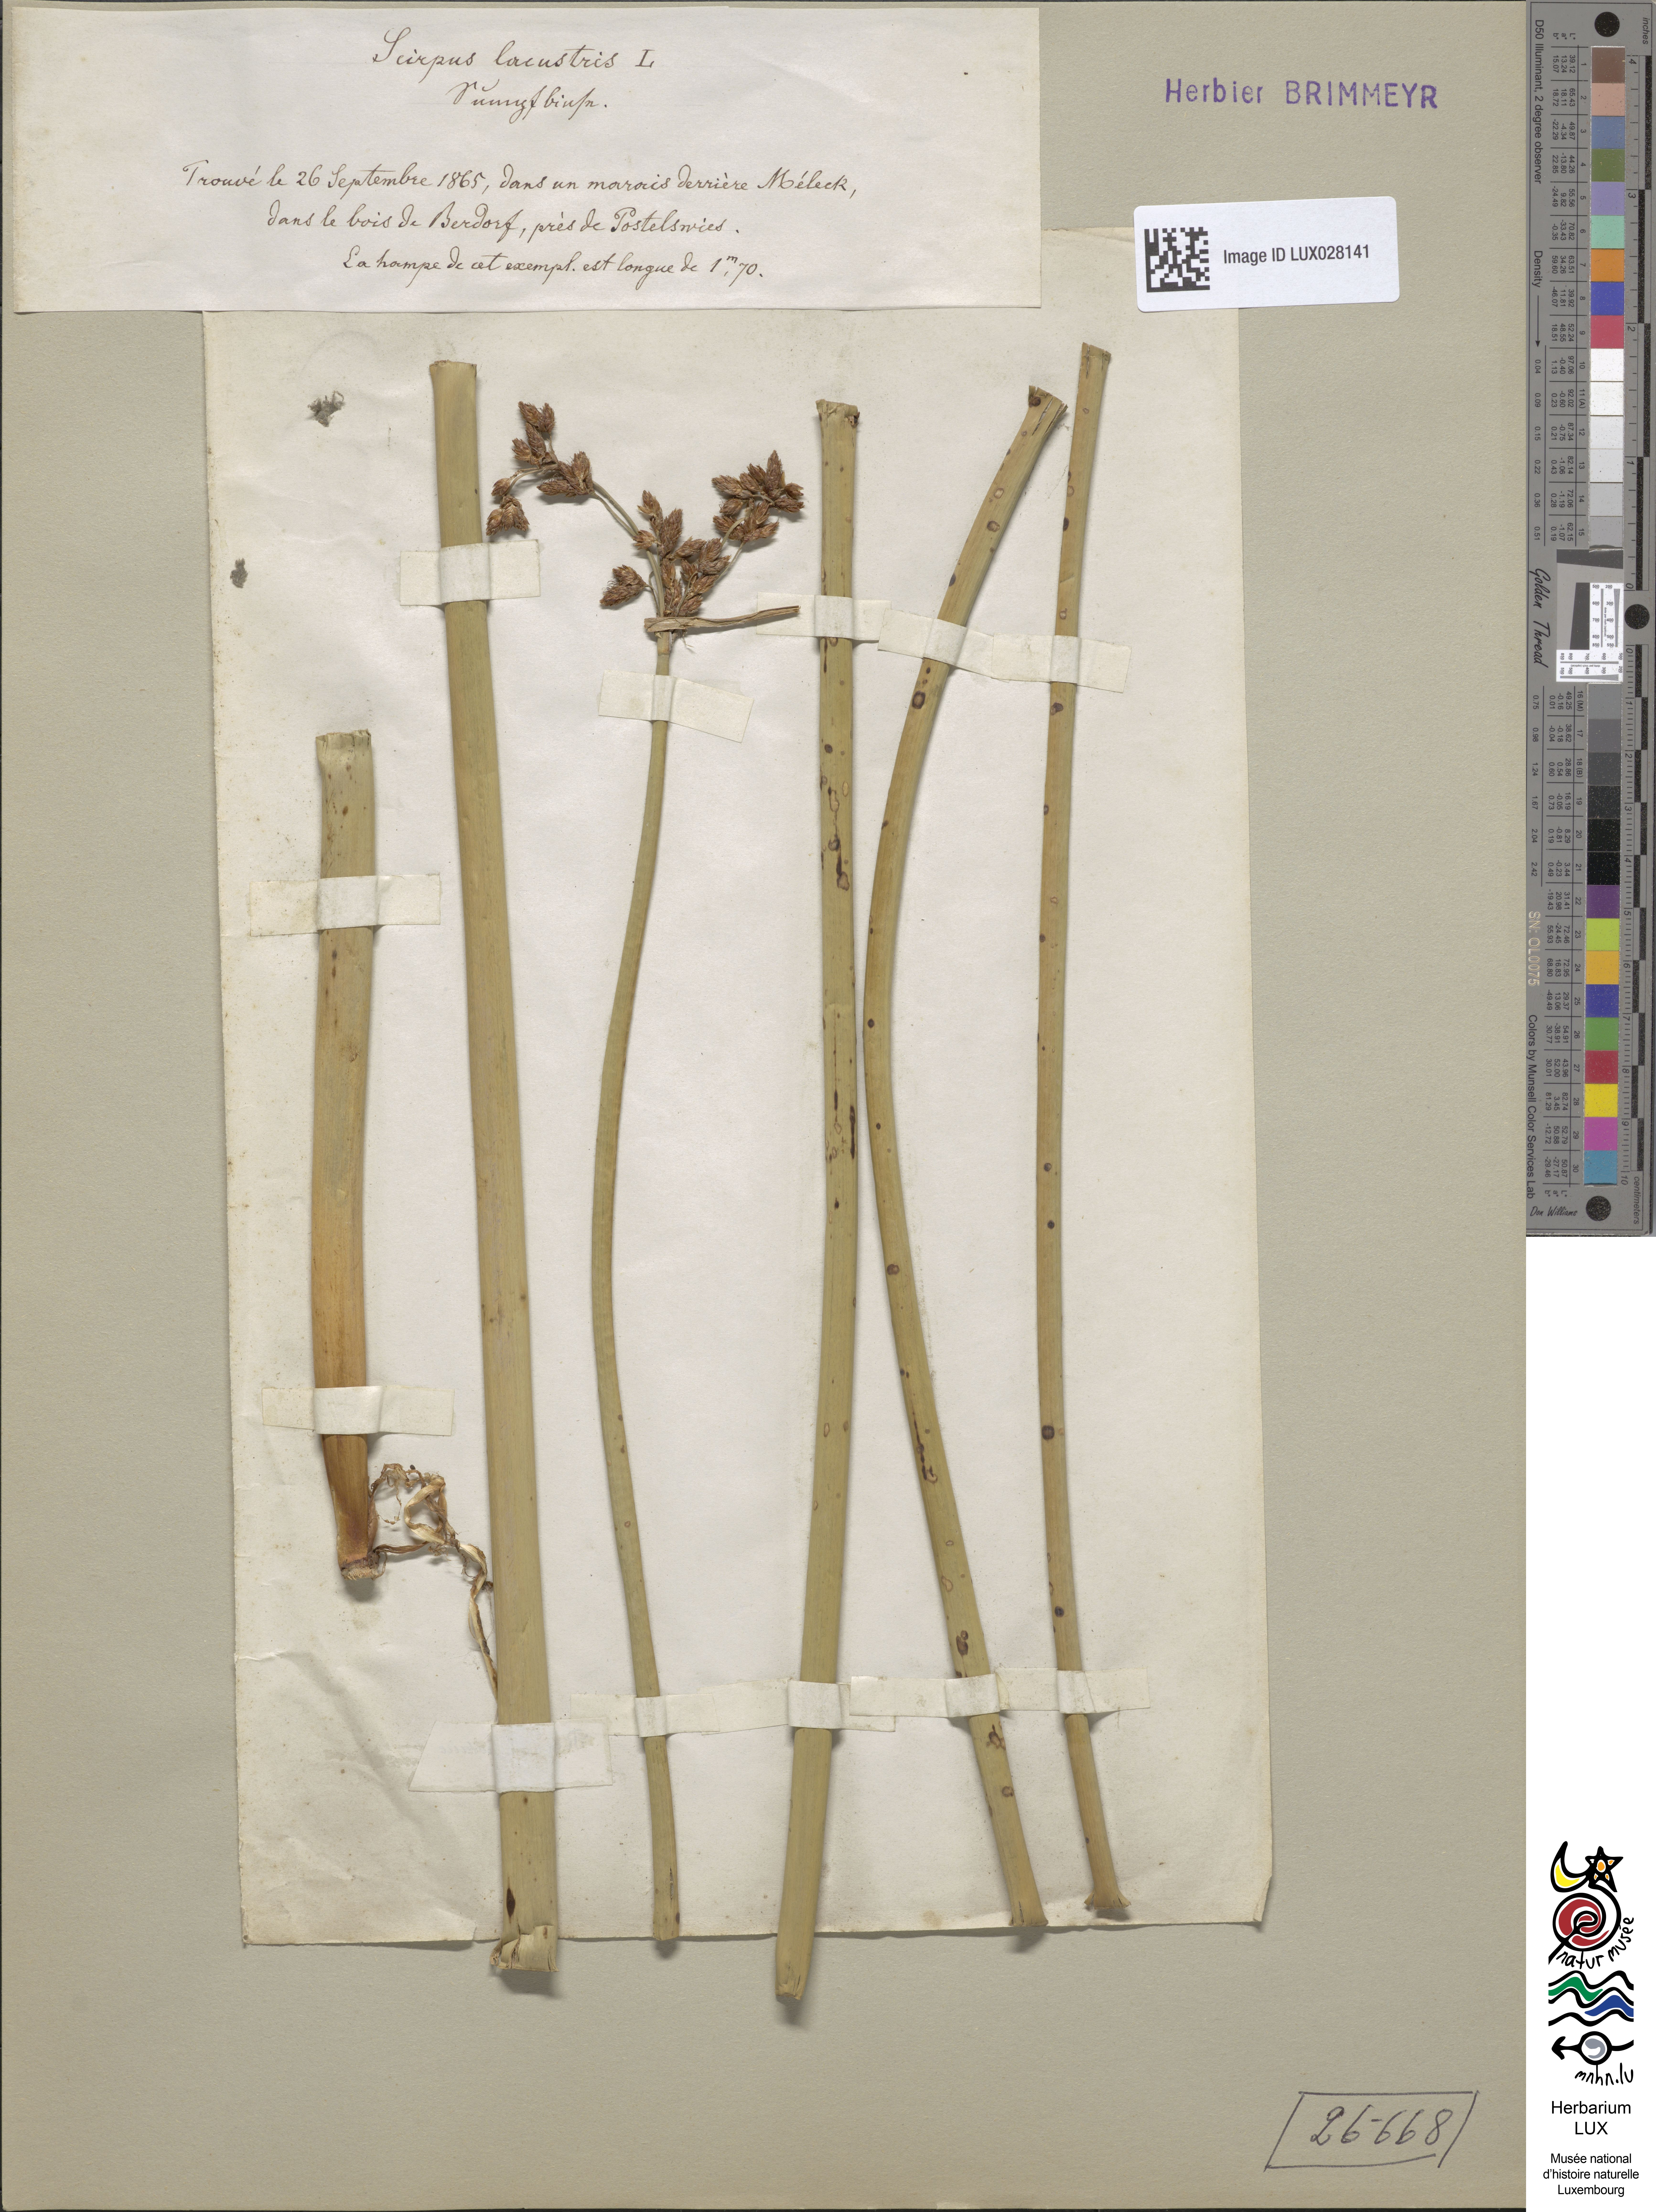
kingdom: Plantae
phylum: Tracheophyta
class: Liliopsida
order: Poales
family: Cyperaceae
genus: Schoenoplectus
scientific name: Schoenoplectus lacustris
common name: Common club-rush
